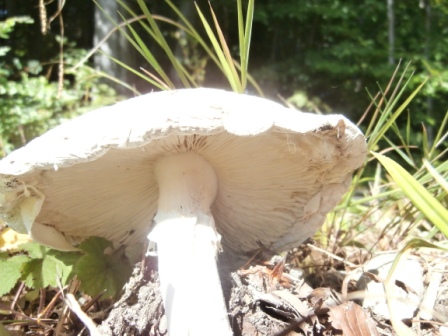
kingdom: Fungi
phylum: Basidiomycota
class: Agaricomycetes
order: Agaricales
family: Amanitaceae
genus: Amanita
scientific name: Amanita
